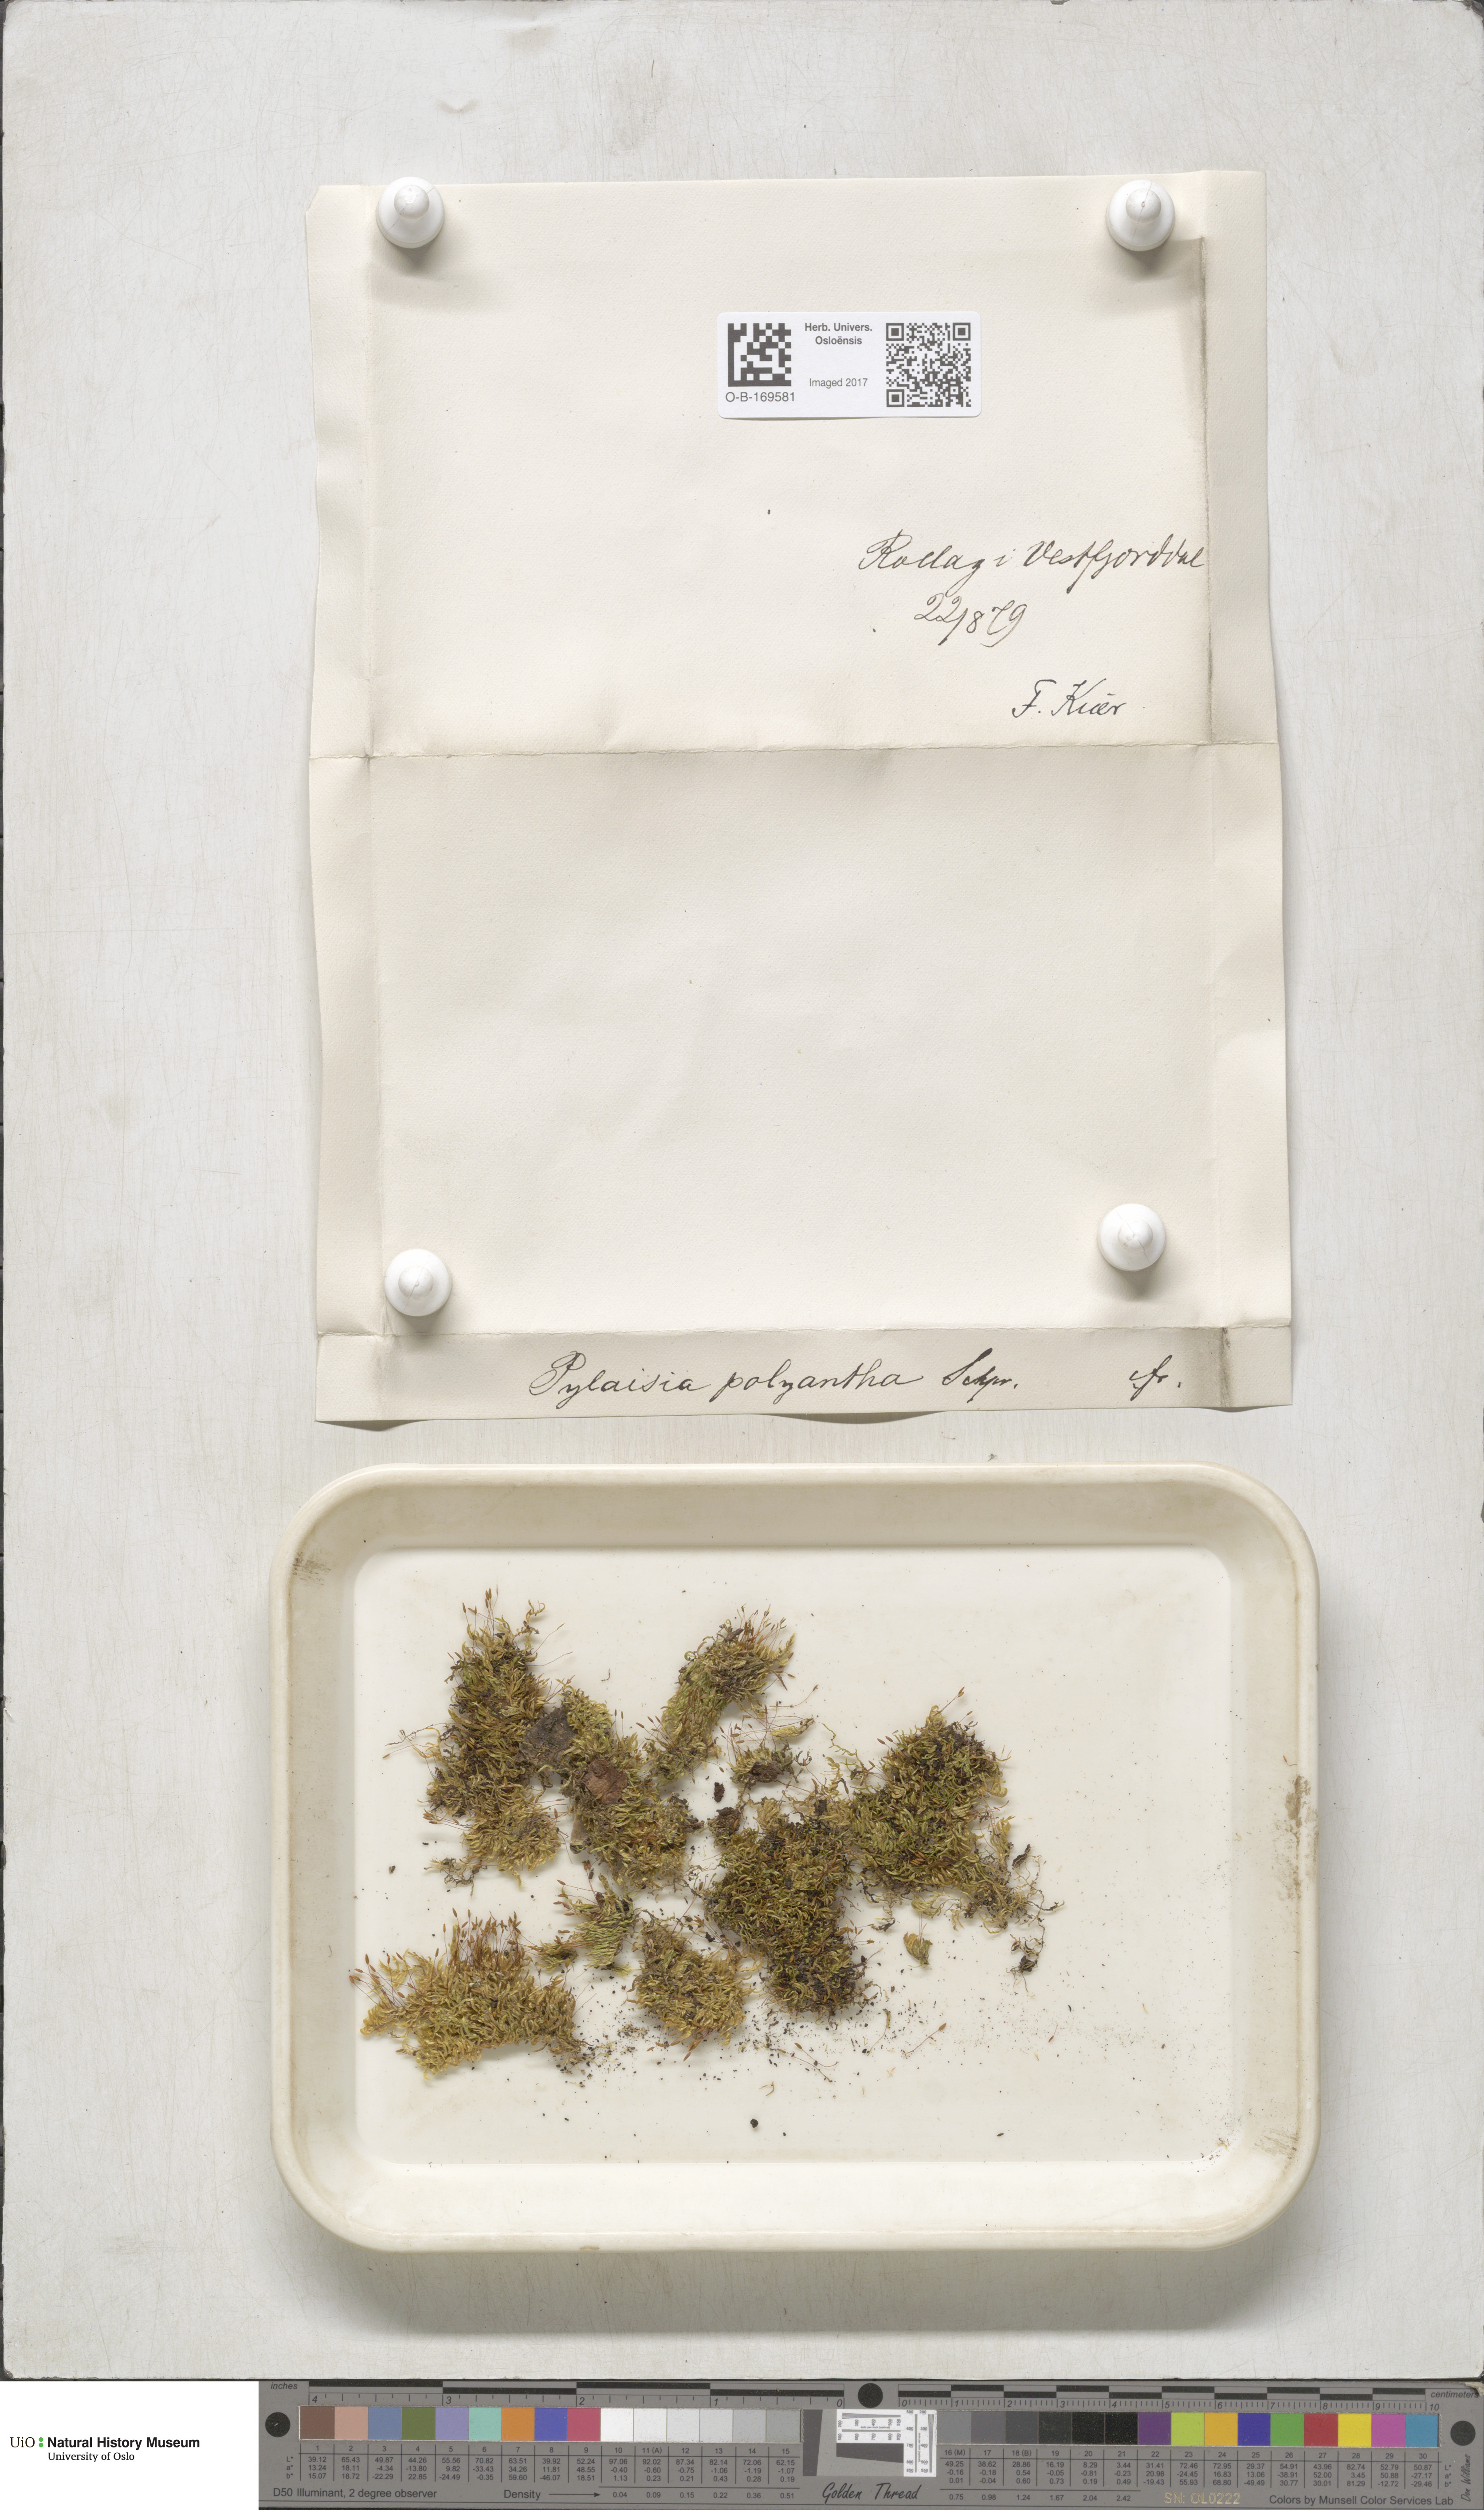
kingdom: Plantae
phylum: Bryophyta
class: Bryopsida
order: Hypnales
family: Pylaisiaceae
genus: Pylaisia
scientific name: Pylaisia polyantha
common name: Many-flowered leskea
